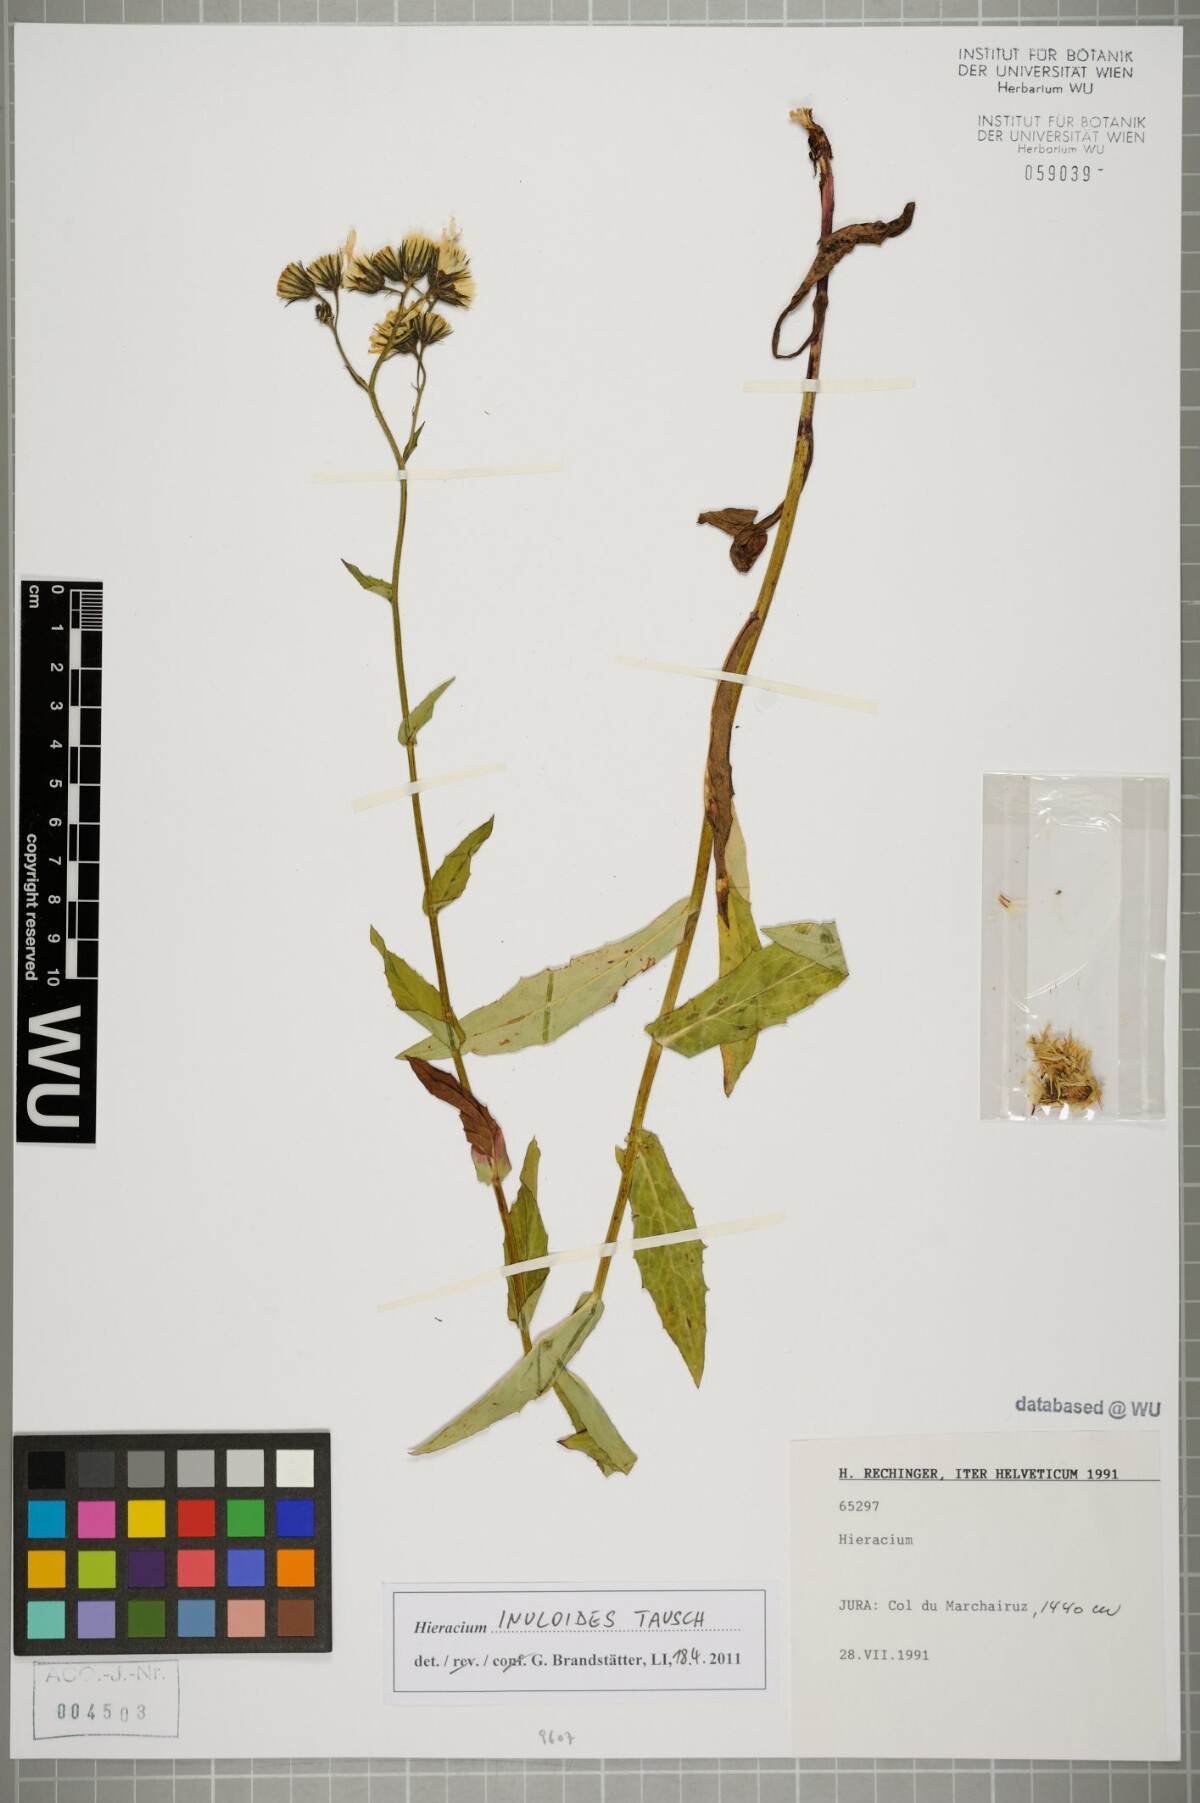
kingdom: Plantae
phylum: Tracheophyta
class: Magnoliopsida
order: Asterales
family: Asteraceae
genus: Hieracium
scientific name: Hieracium inuloides
